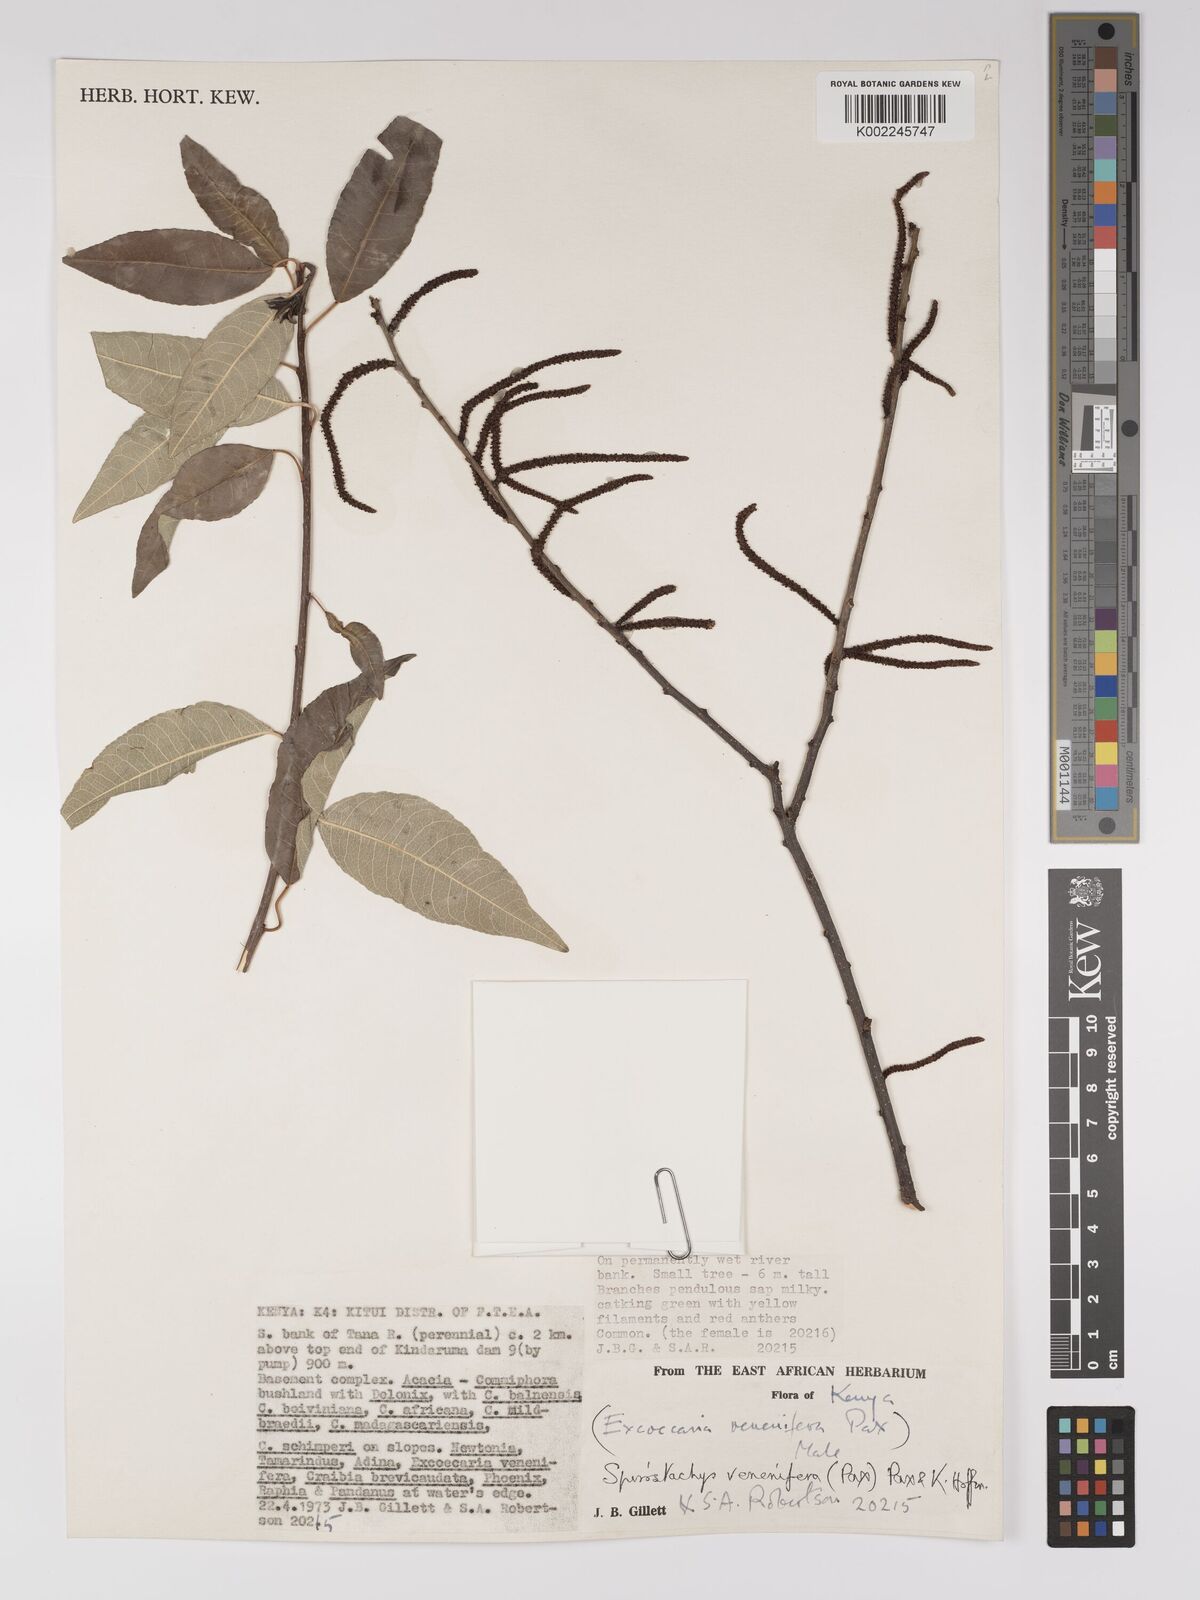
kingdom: Plantae
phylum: Tracheophyta
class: Magnoliopsida
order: Malpighiales
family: Euphorbiaceae
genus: Spirostachys
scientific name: Spirostachys venenifera
